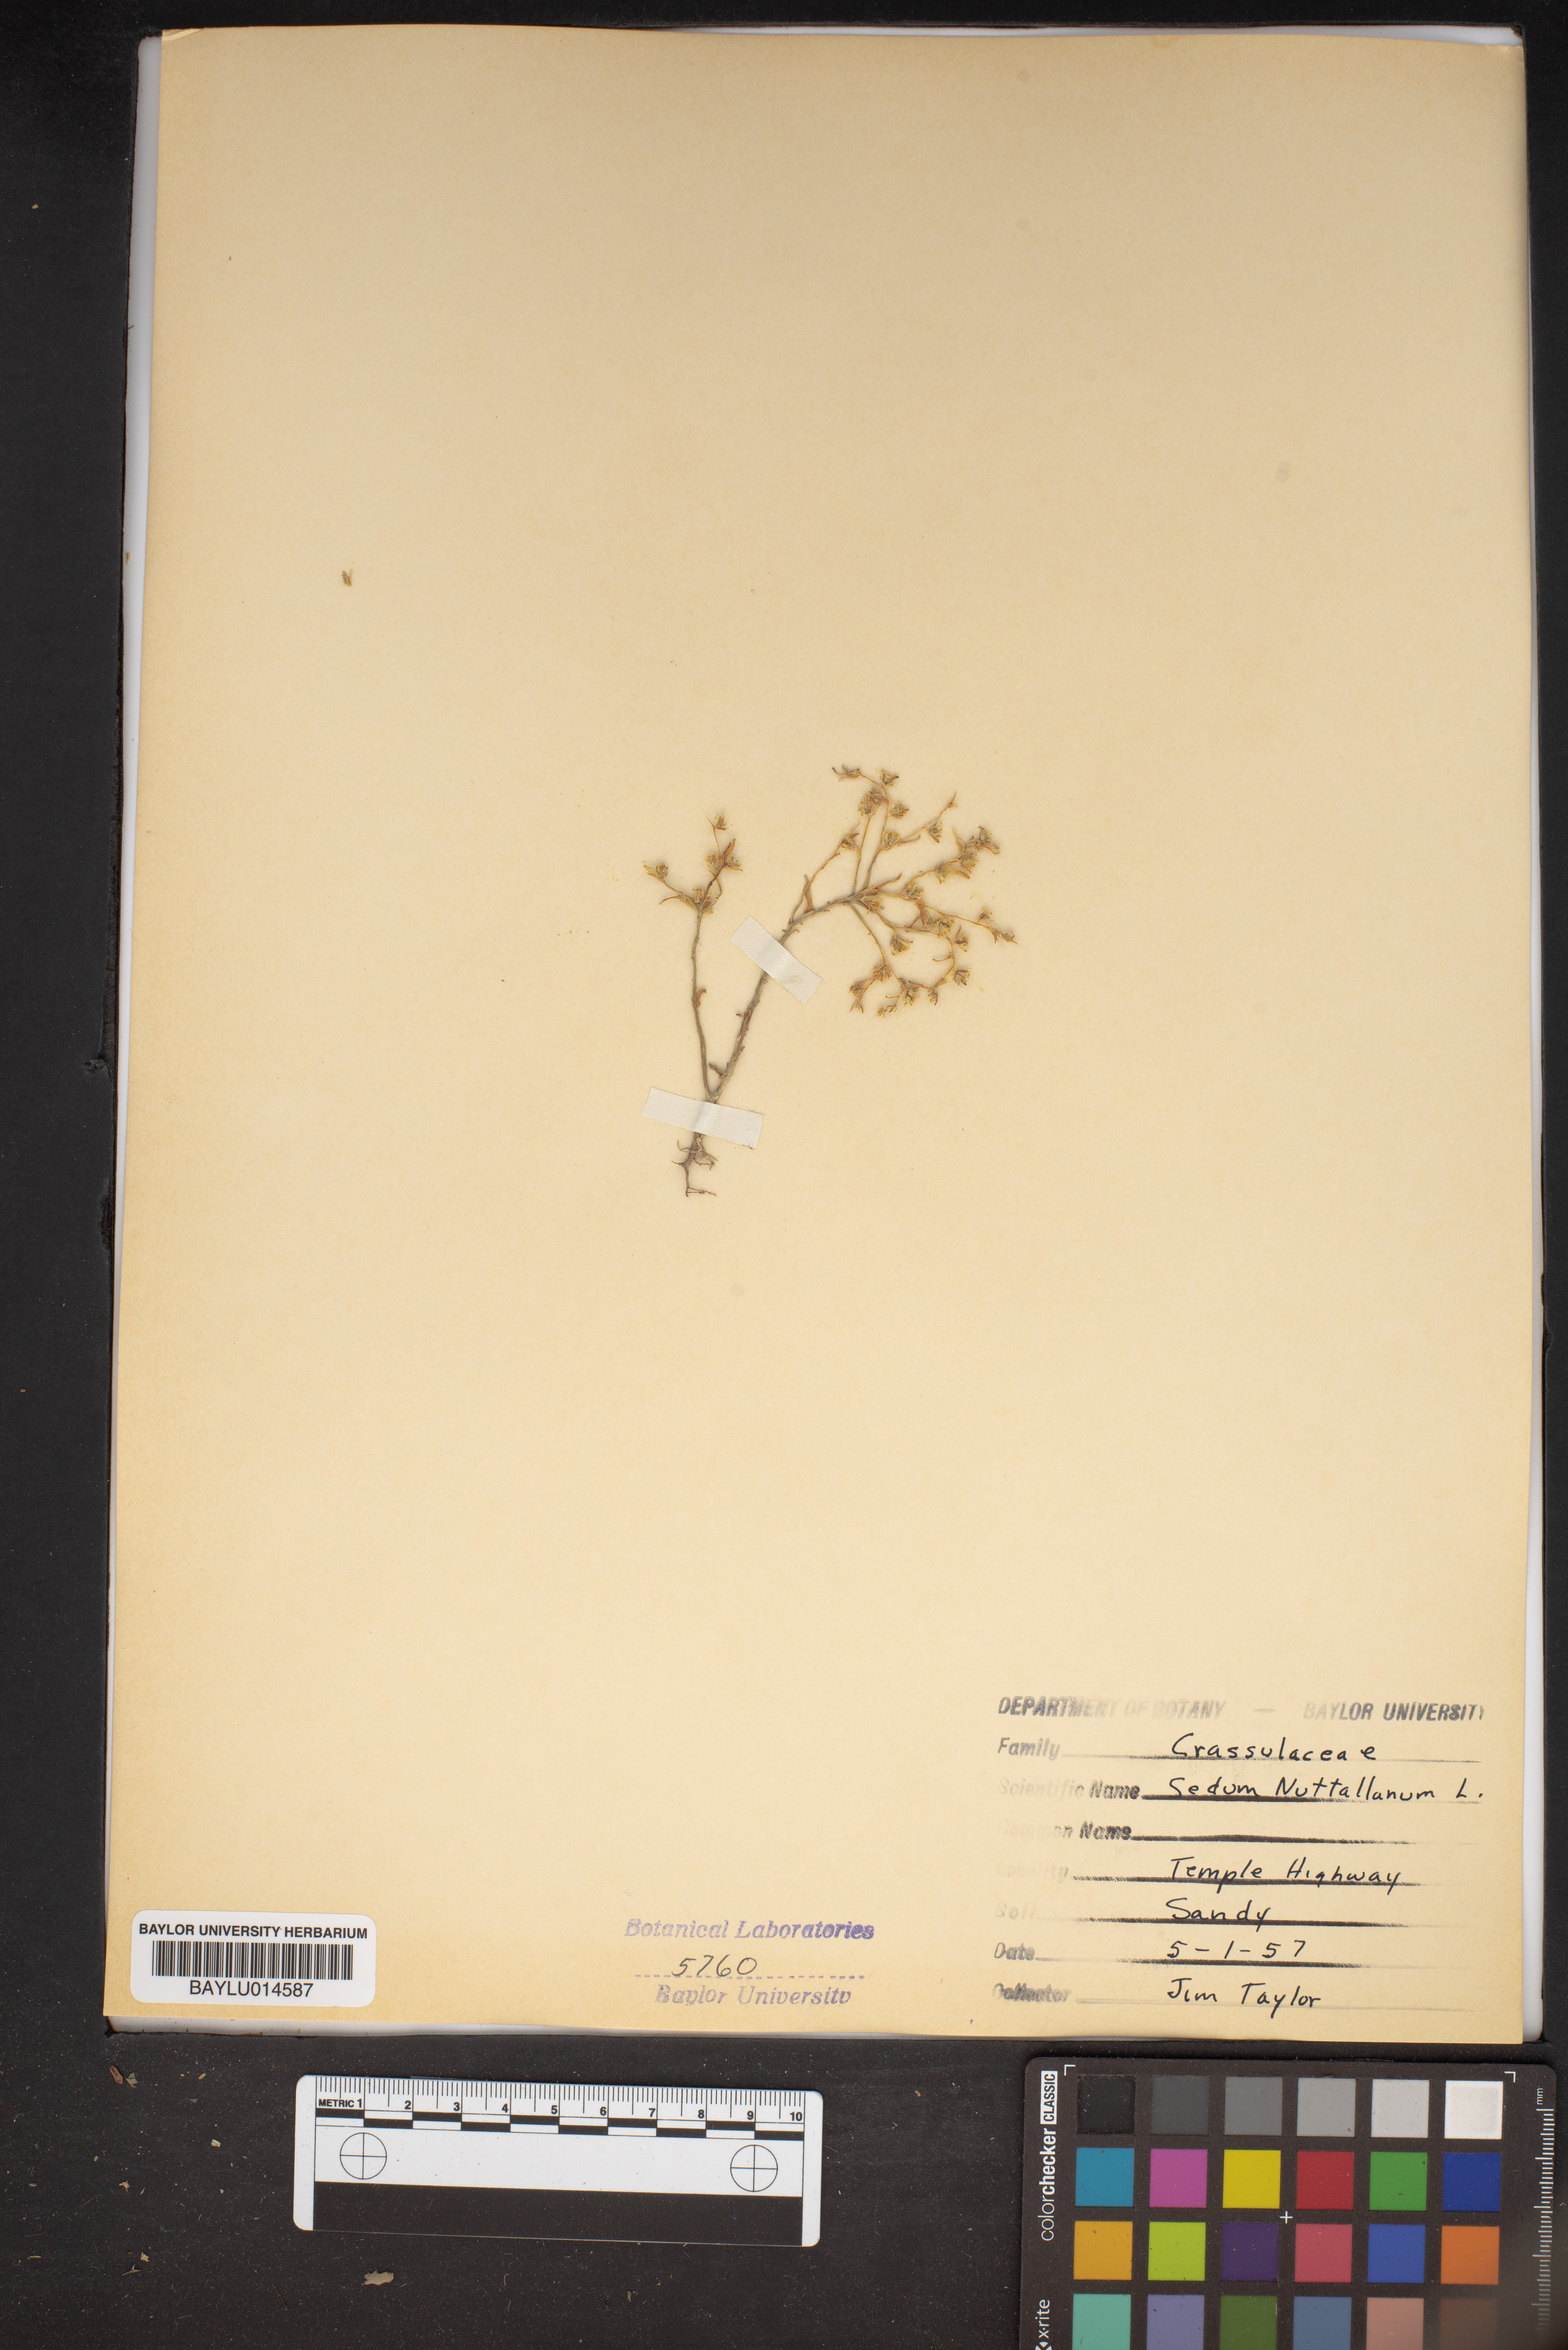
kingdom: Plantae
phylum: Tracheophyta
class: Magnoliopsida
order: Saxifragales
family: Crassulaceae
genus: Sedum
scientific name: Sedum nuttallii
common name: Yellow stonecrop
